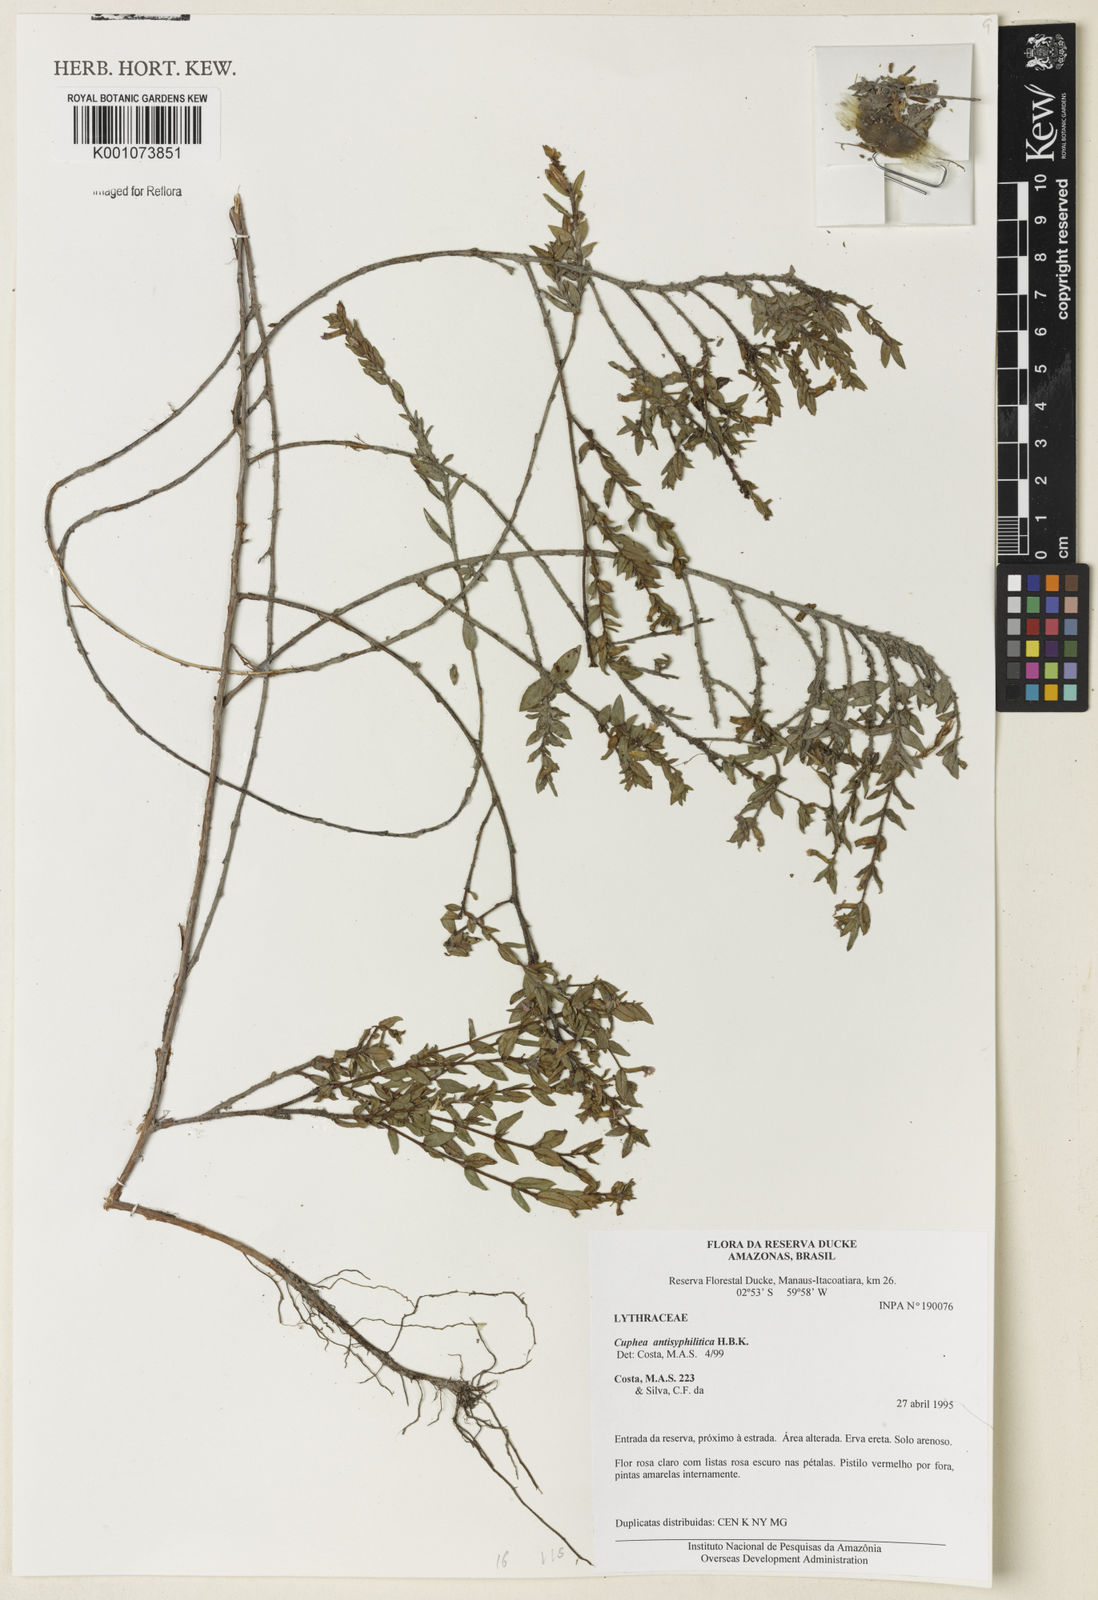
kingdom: Plantae
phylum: Tracheophyta
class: Magnoliopsida
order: Myrtales
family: Lythraceae
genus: Cuphea
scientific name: Cuphea antisyphilitica
